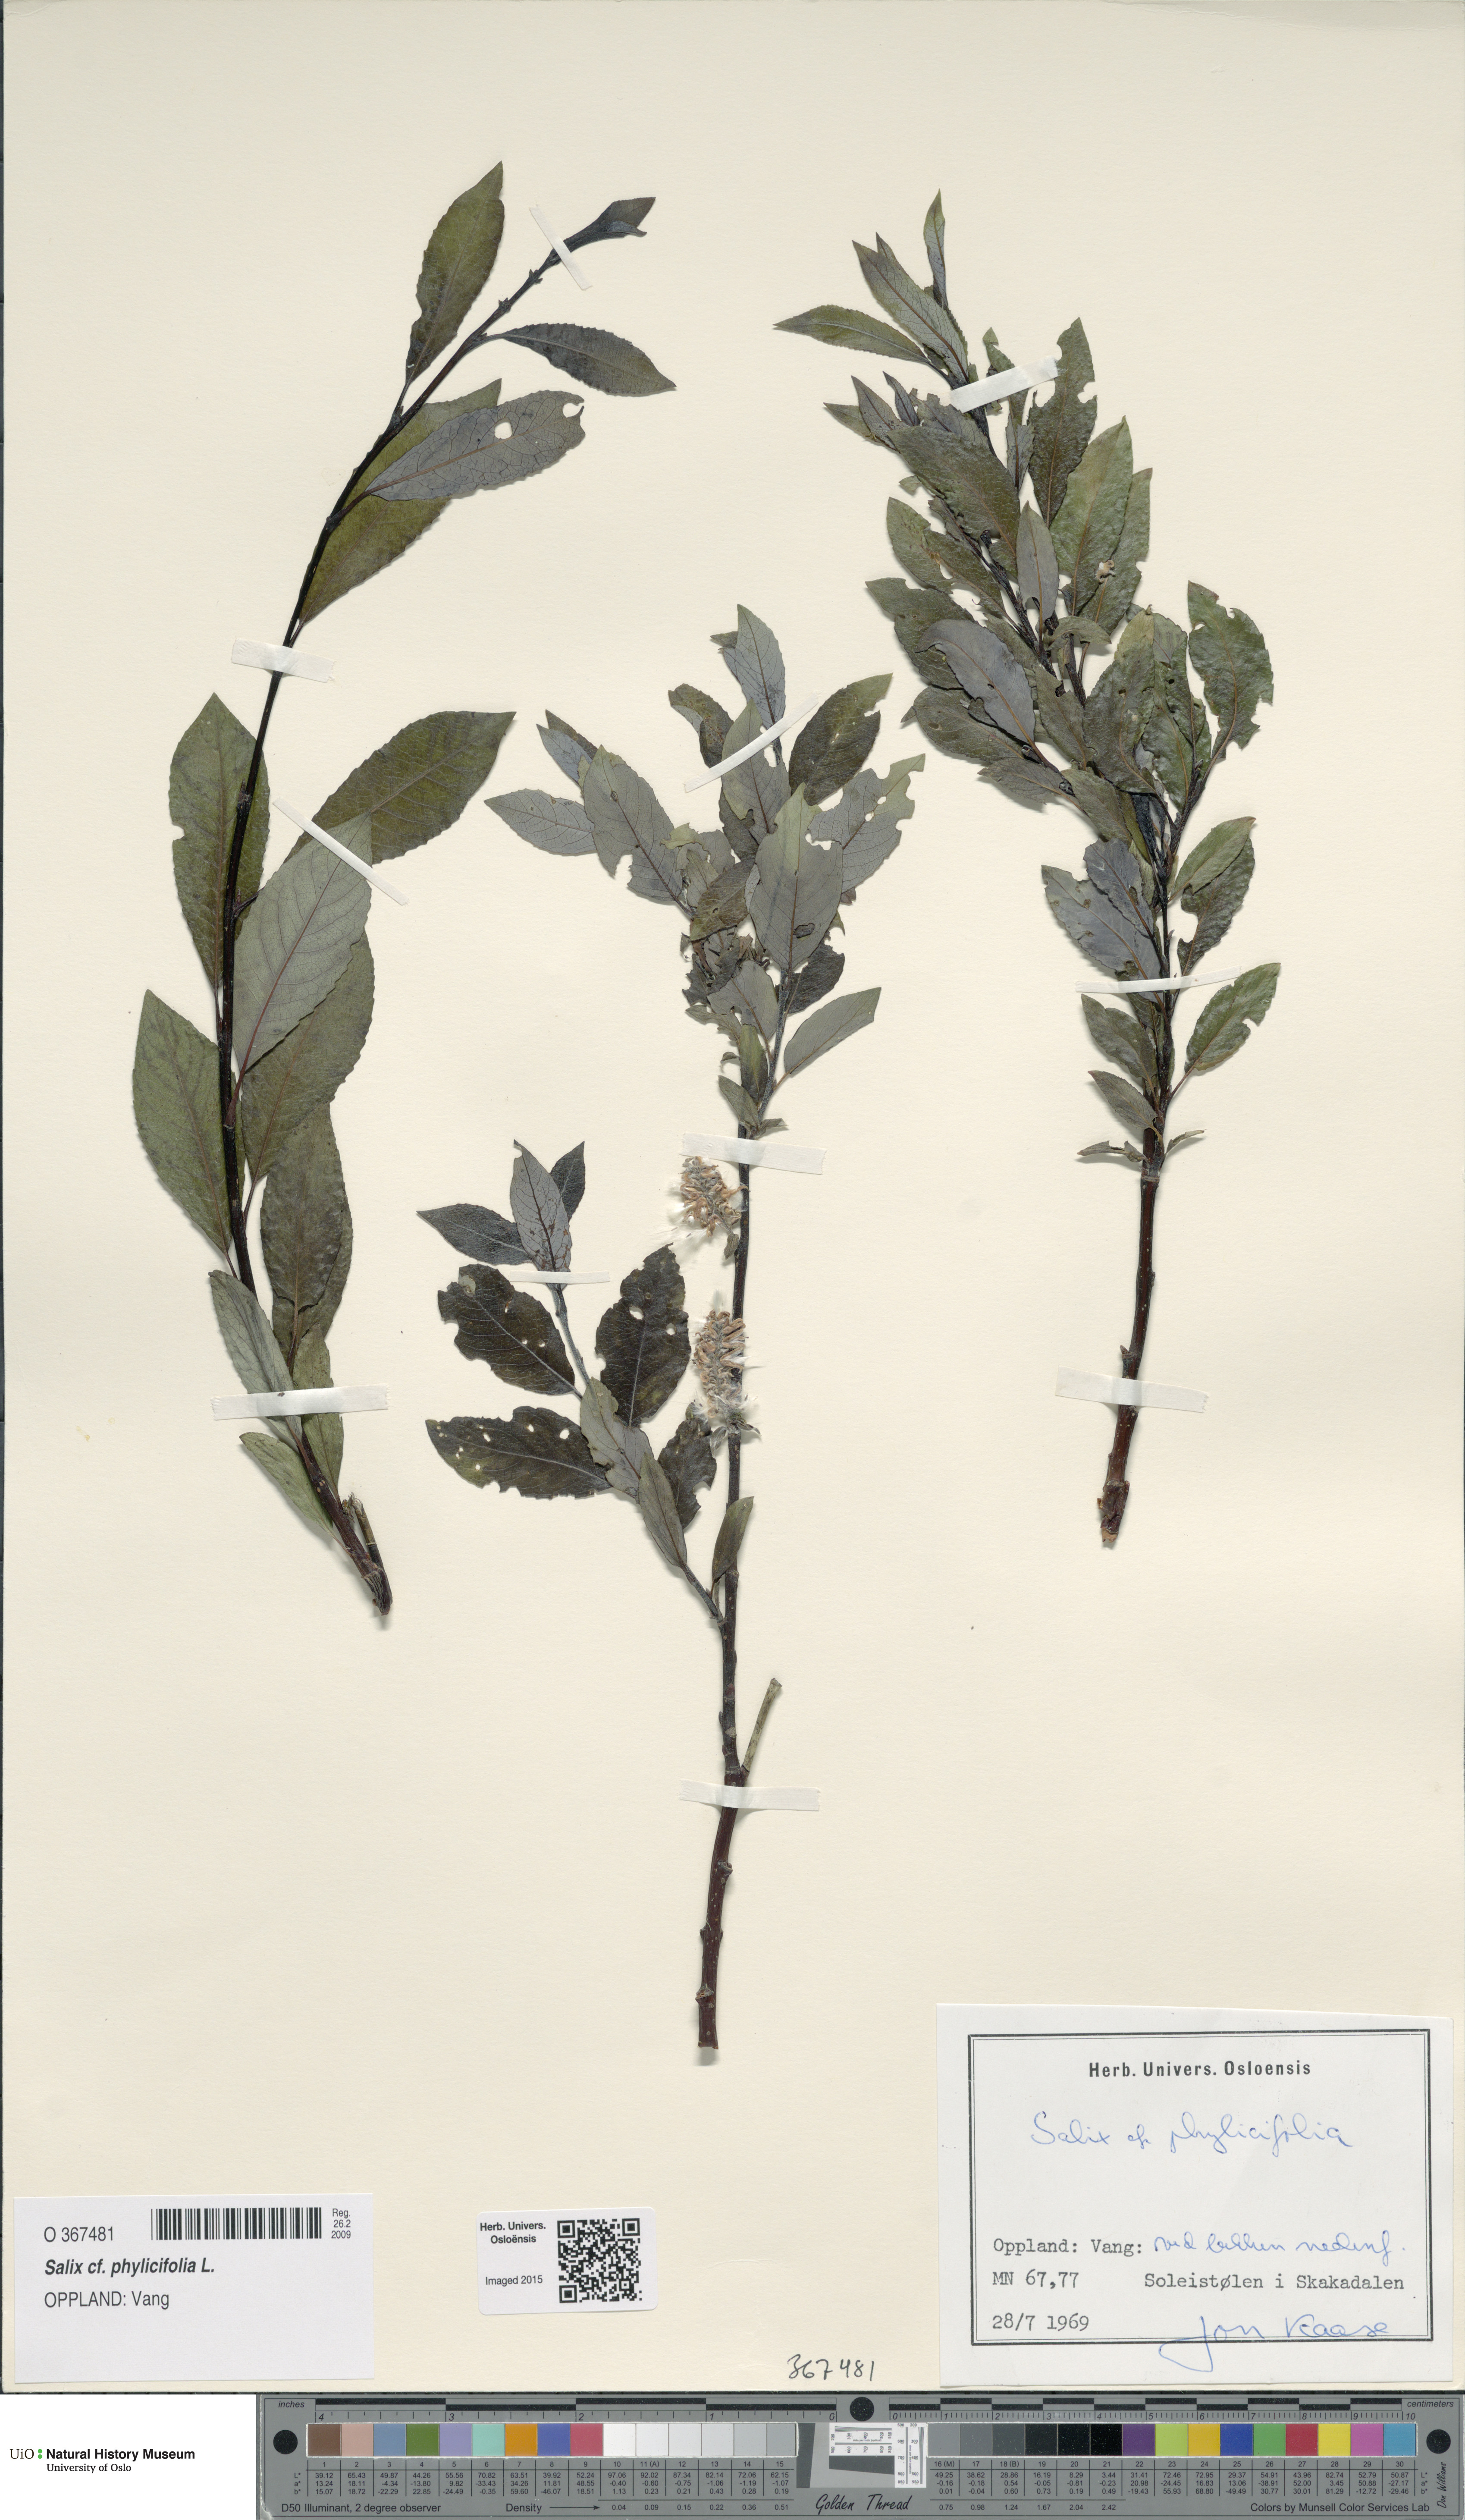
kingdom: Plantae
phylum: Tracheophyta
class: Magnoliopsida
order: Malpighiales
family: Salicaceae
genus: Salix
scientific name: Salix phylicifolia
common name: Tea-leaved willow
